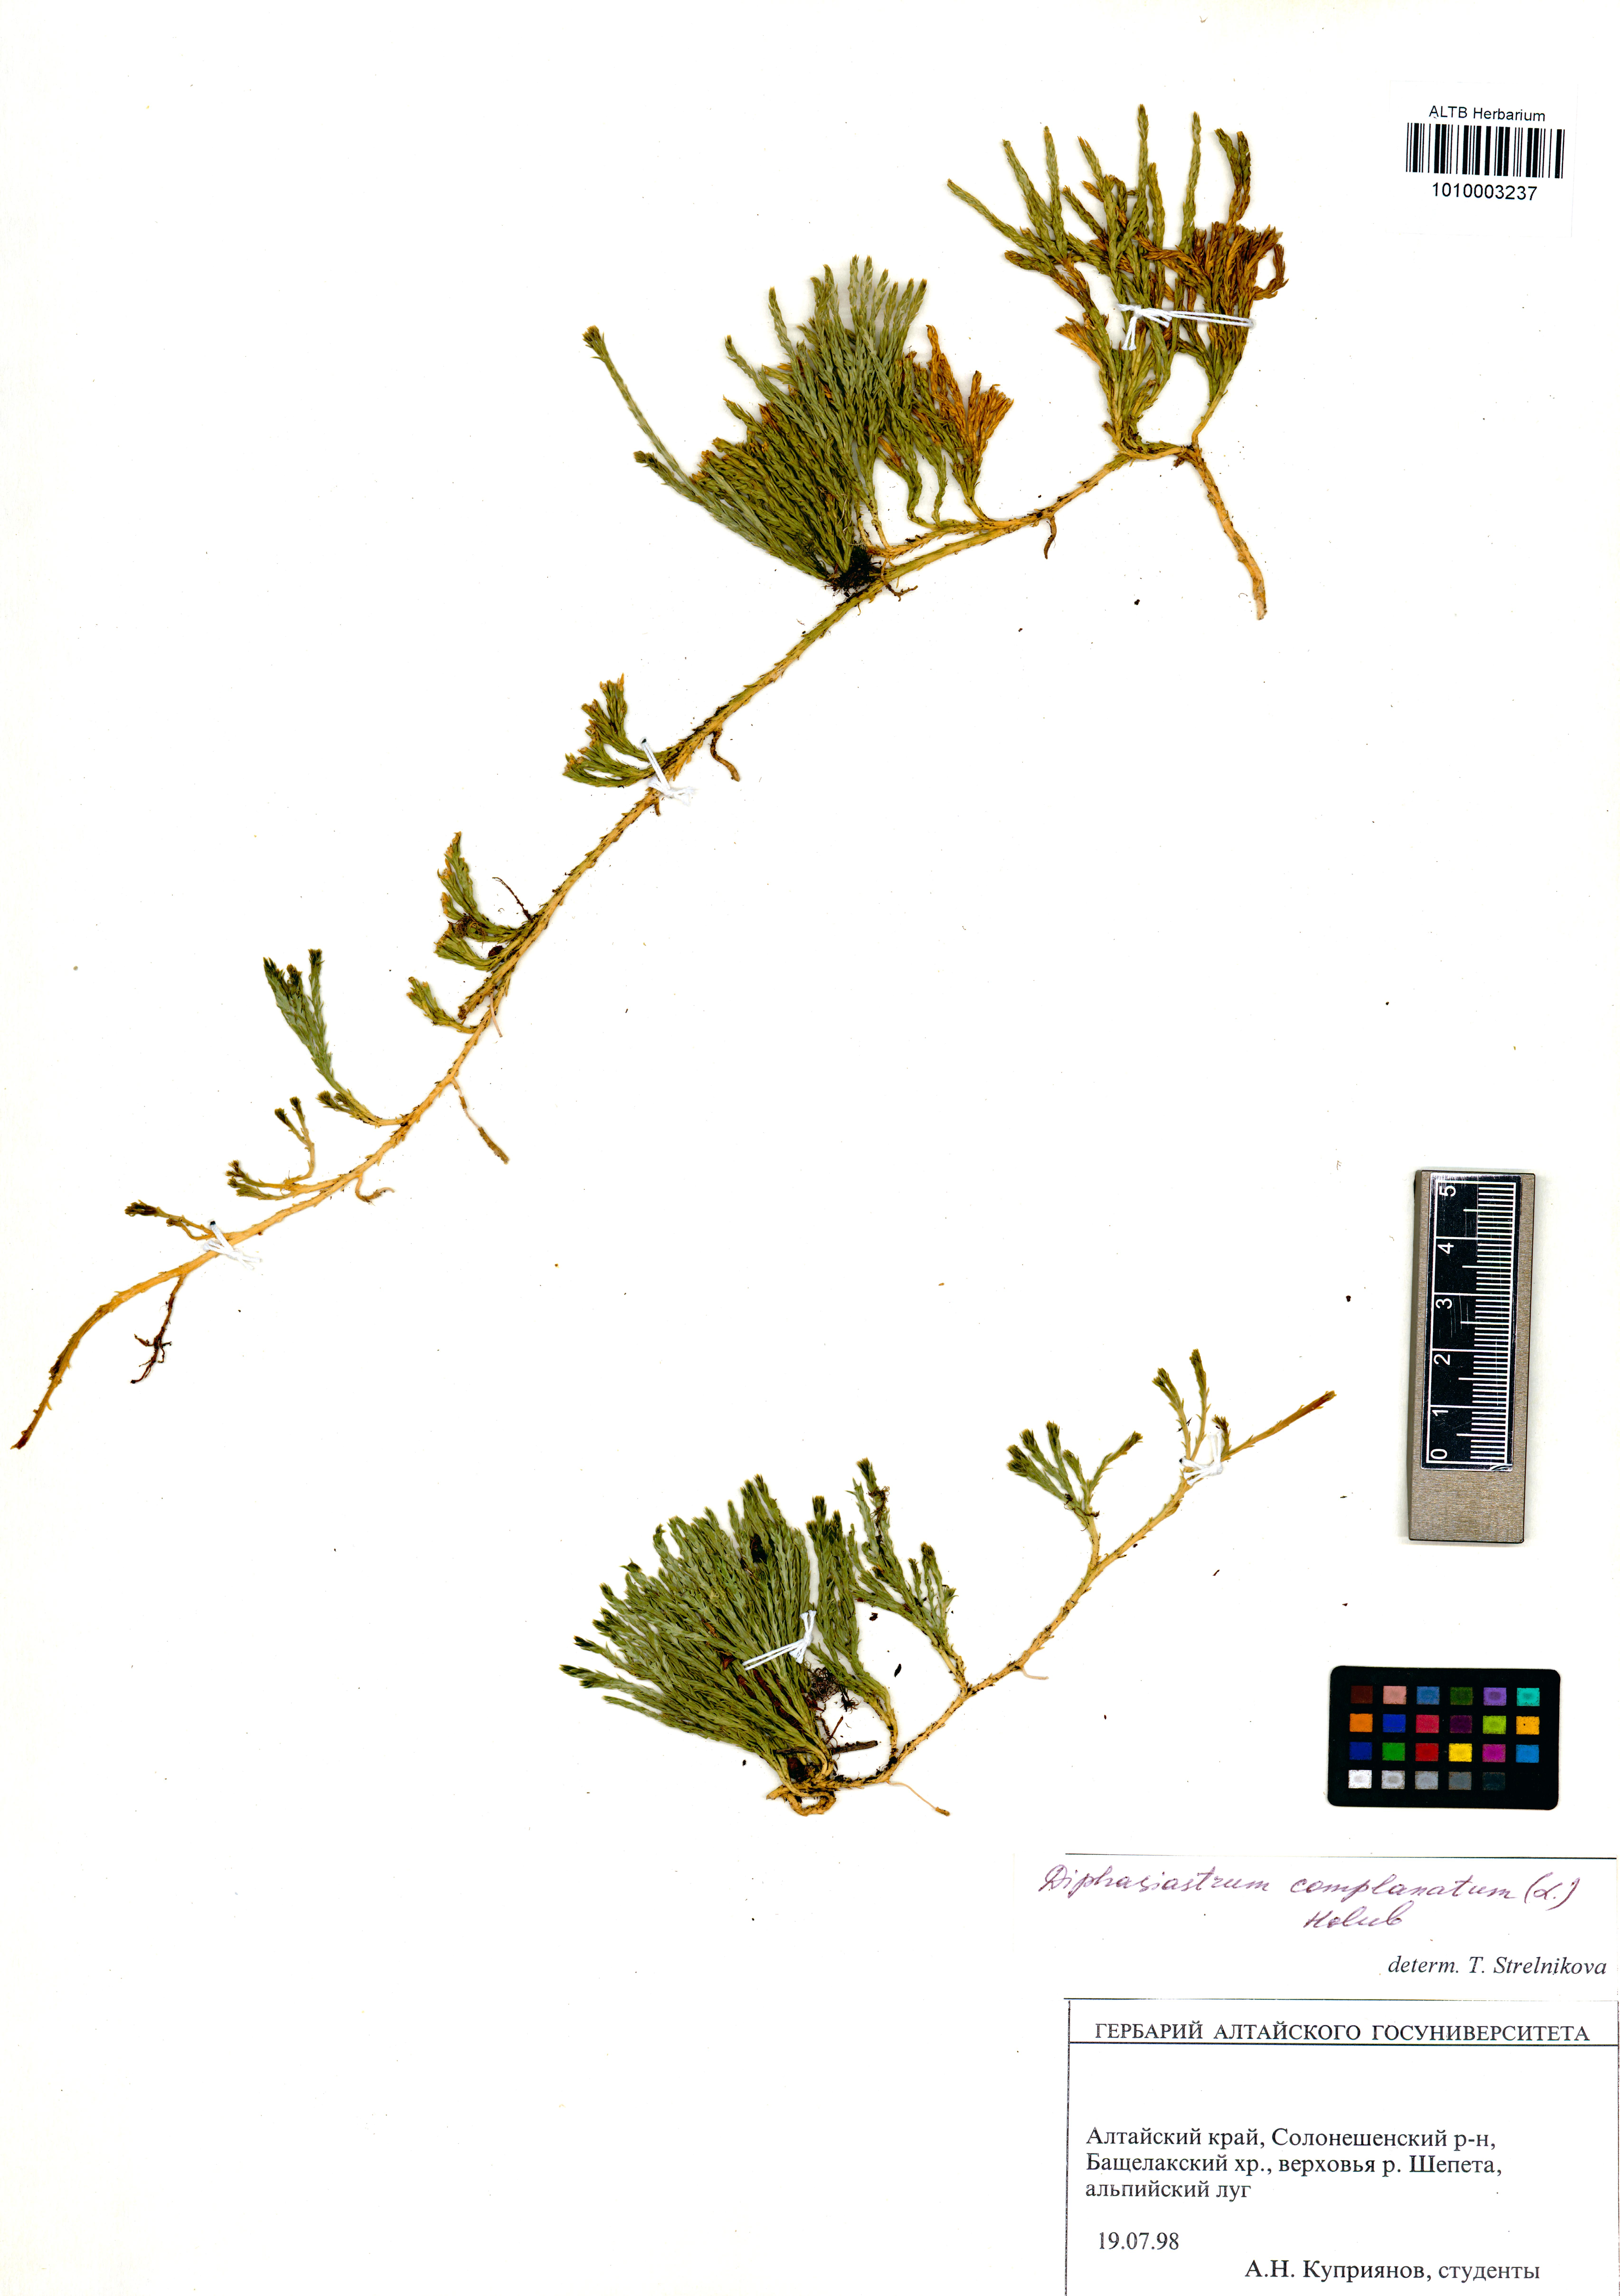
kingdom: Plantae
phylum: Tracheophyta
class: Lycopodiopsida
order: Lycopodiales
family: Lycopodiaceae
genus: Diphasiastrum
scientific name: Diphasiastrum complanatum
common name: Northern running-pine
